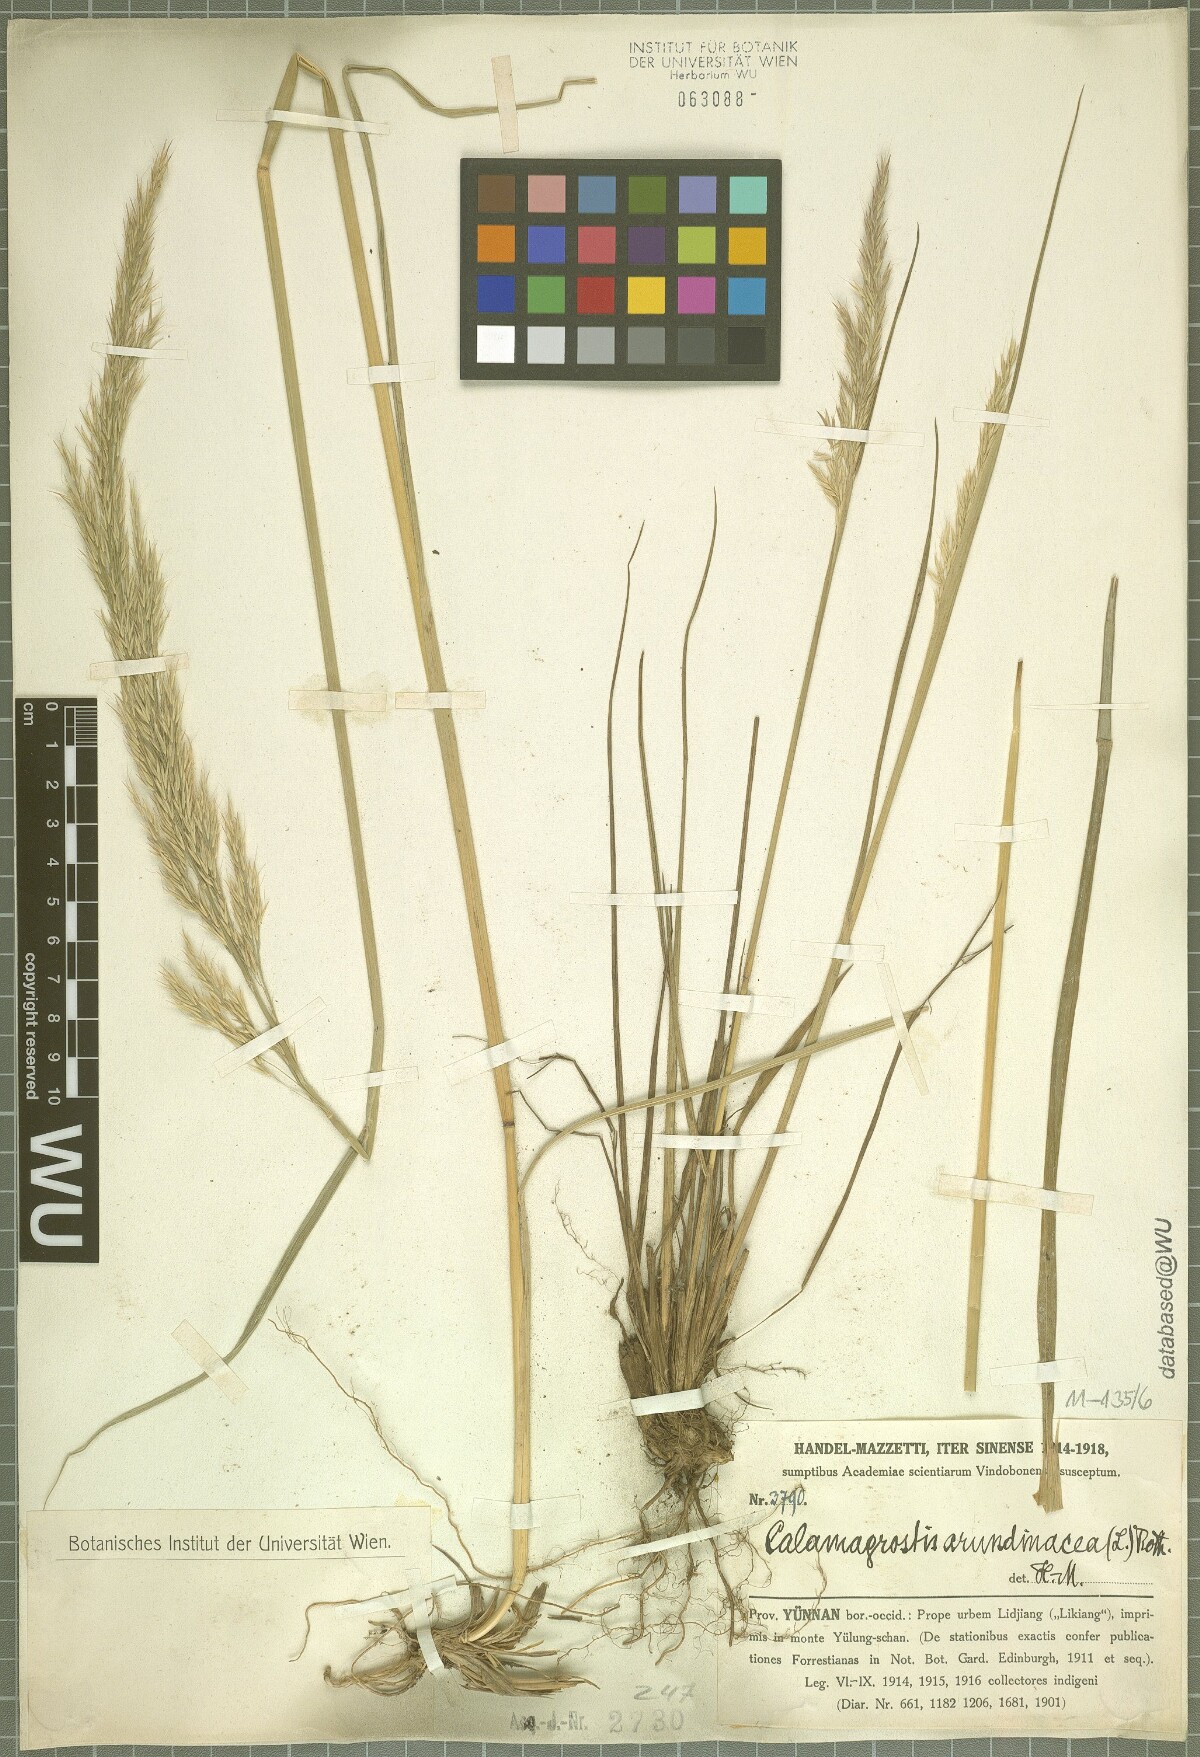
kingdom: Plantae
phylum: Tracheophyta
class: Liliopsida
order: Poales
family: Poaceae
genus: Calamagrostis
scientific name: Calamagrostis arundinacea
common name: Metskastik
